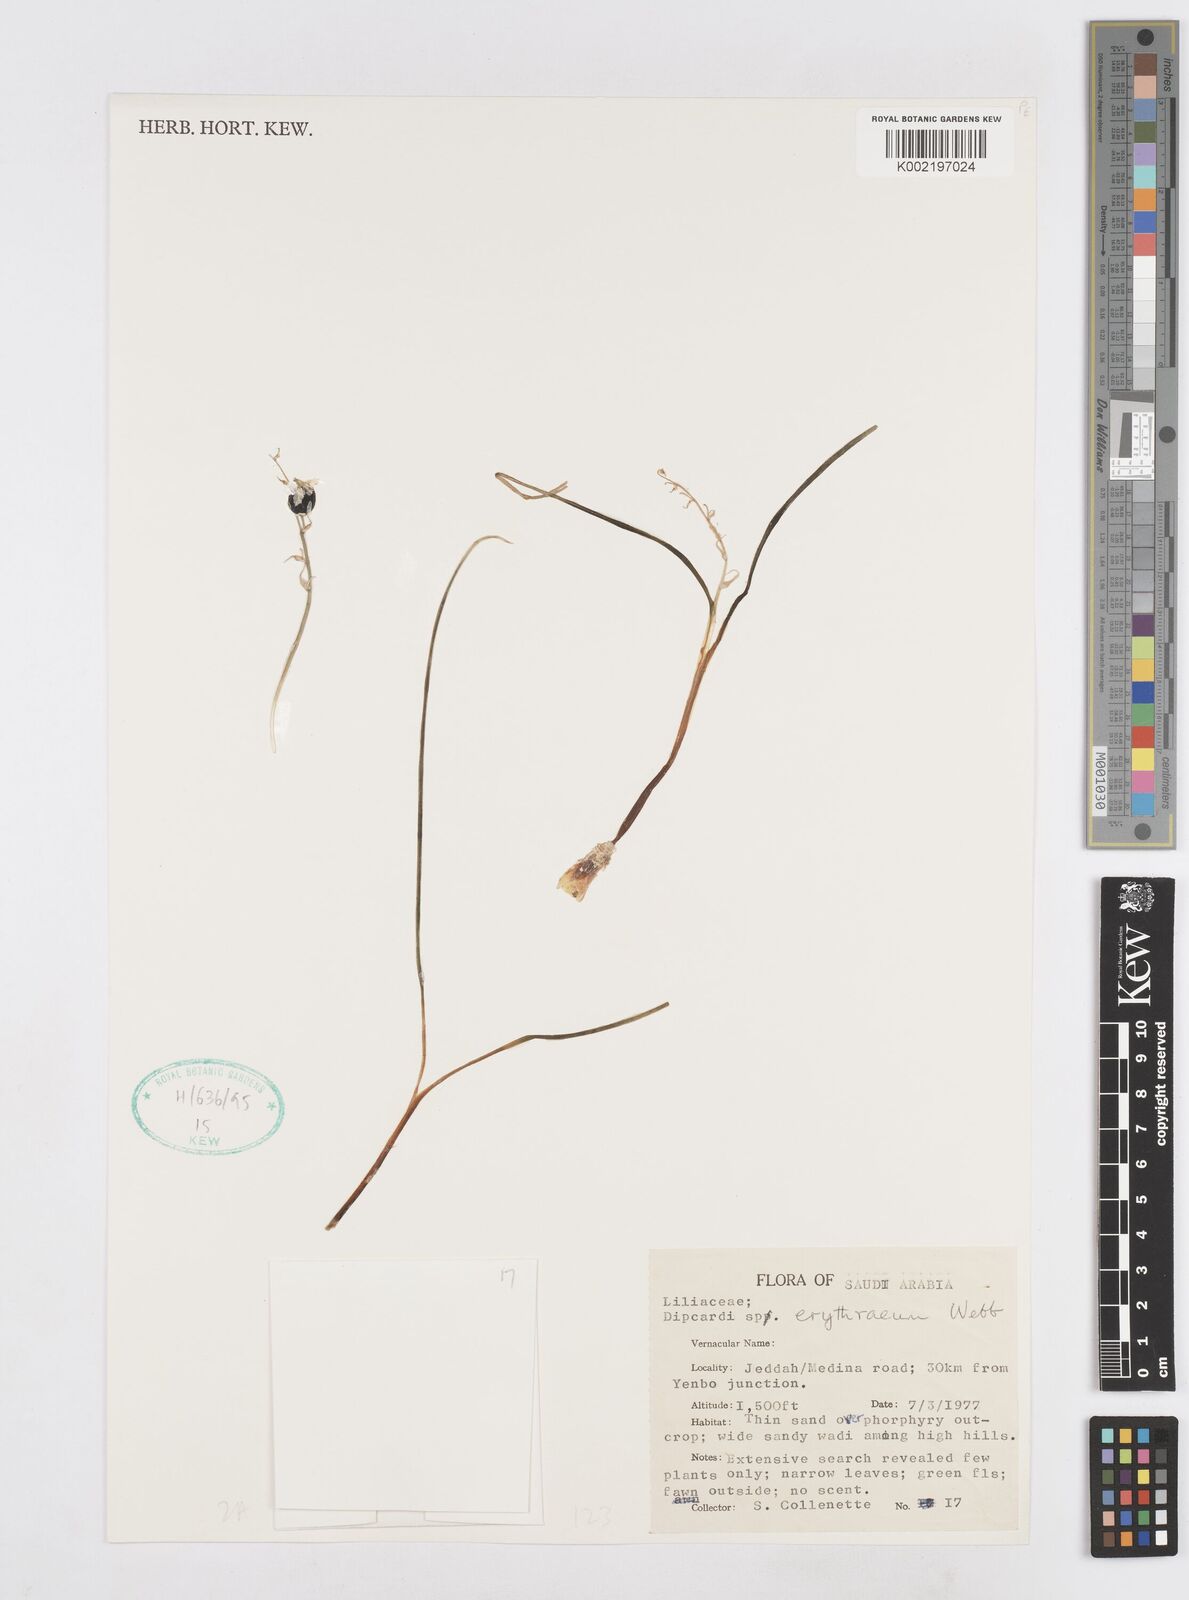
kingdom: Plantae
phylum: Tracheophyta
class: Liliopsida
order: Asparagales
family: Asparagaceae
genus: Dipcadi
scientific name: Dipcadi erythraeum
